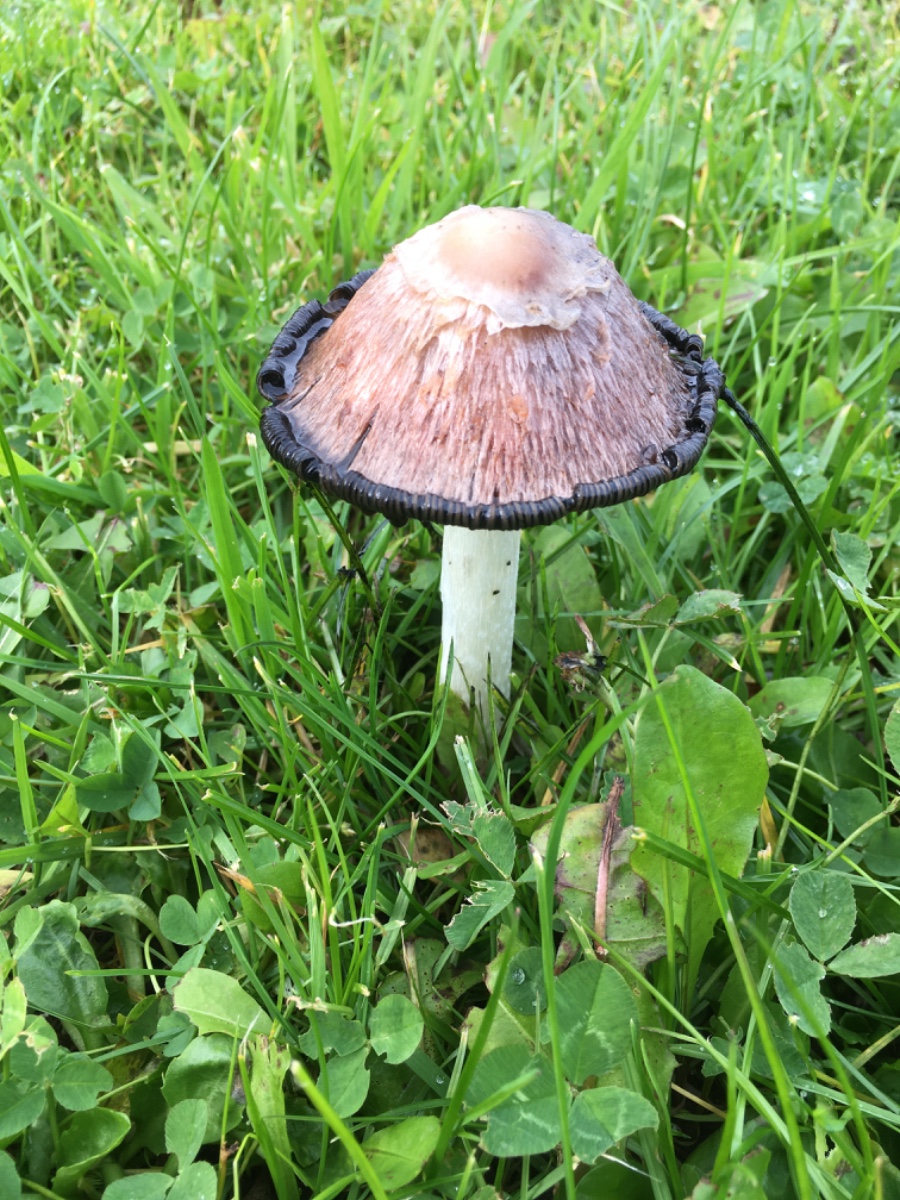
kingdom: Fungi
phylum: Basidiomycota
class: Agaricomycetes
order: Agaricales
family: Agaricaceae
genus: Coprinus
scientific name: Coprinus comatus
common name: stor parykhat
